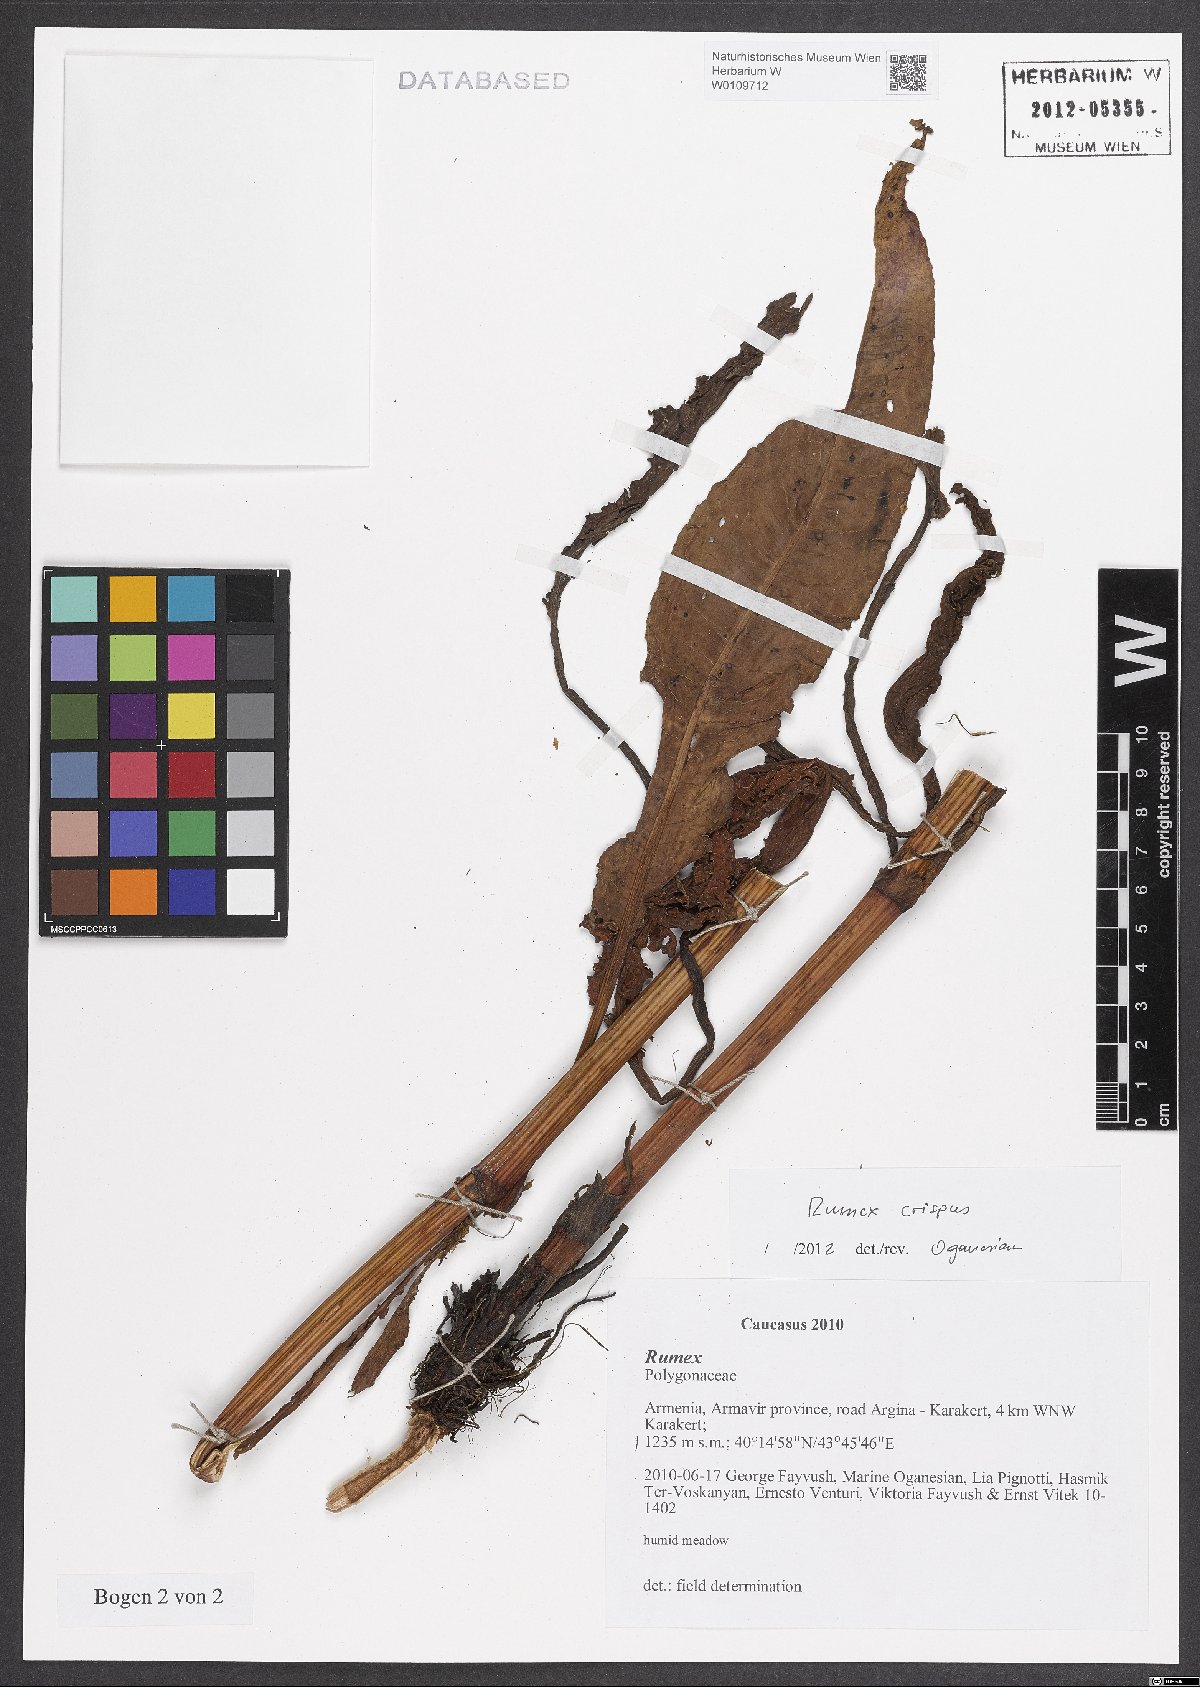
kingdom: Plantae
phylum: Tracheophyta
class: Magnoliopsida
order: Caryophyllales
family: Polygonaceae
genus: Rumex
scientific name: Rumex crispus
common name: Curled dock
